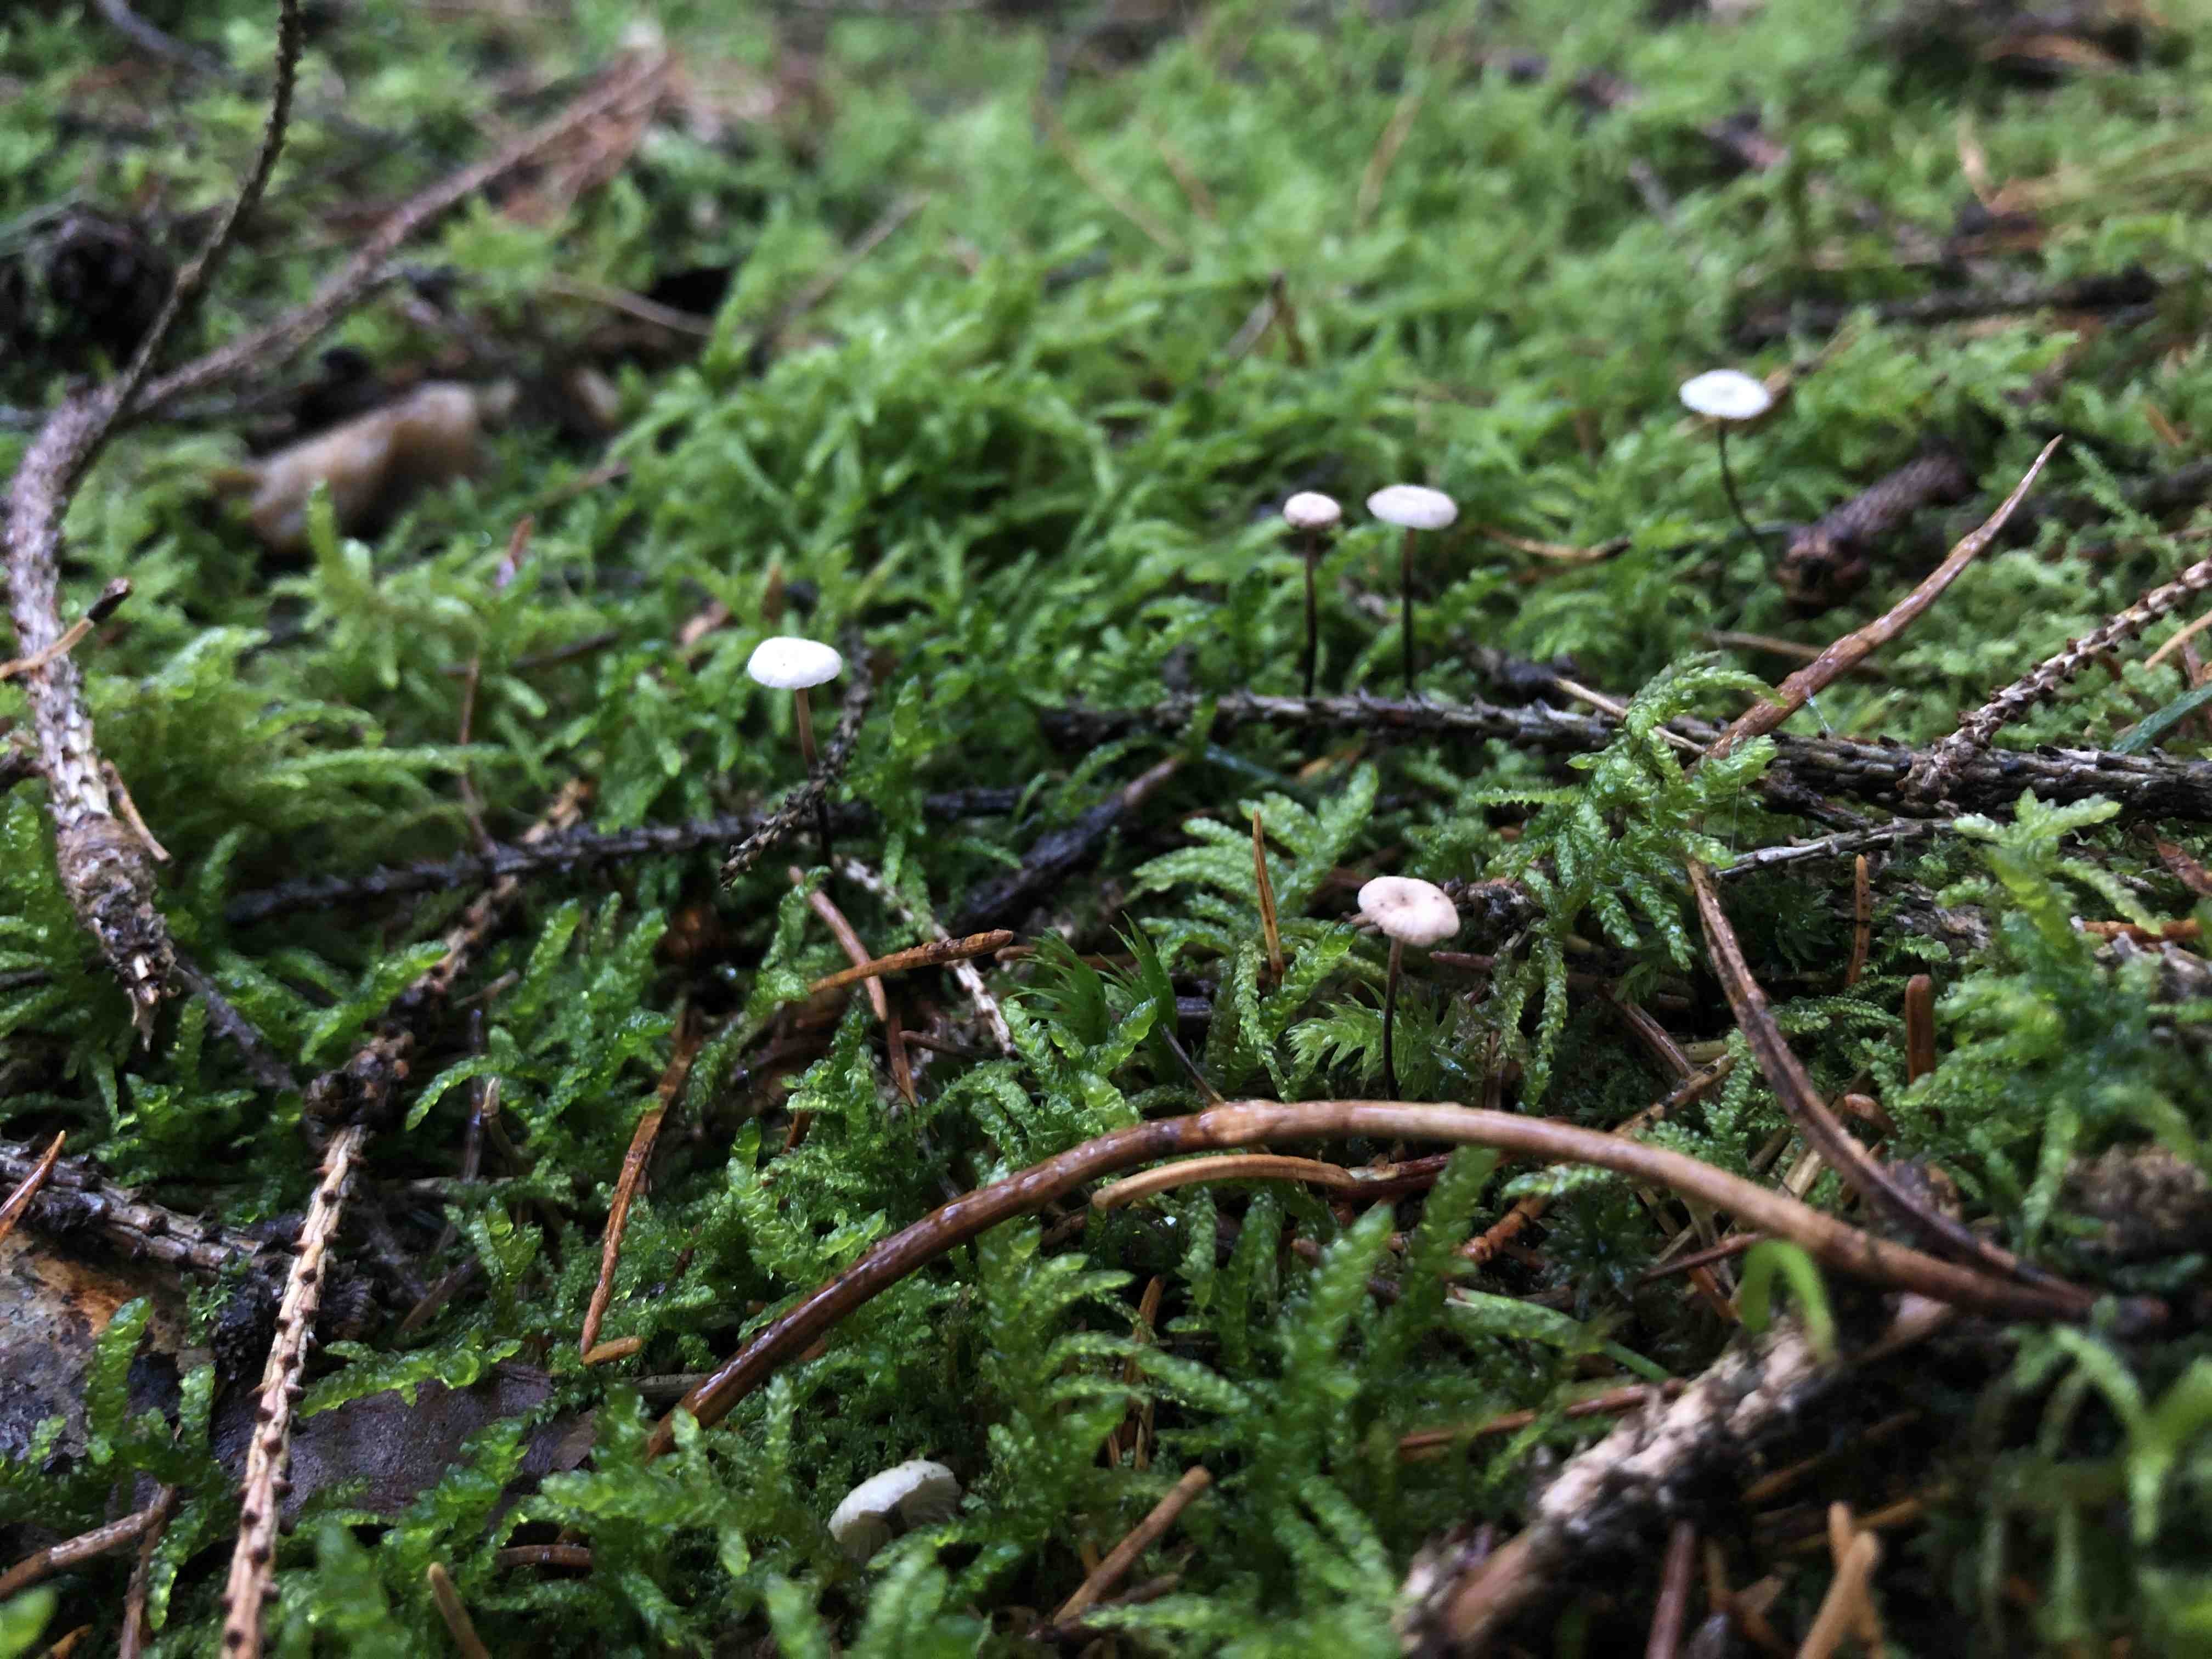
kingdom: Fungi
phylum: Basidiomycota
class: Agaricomycetes
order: Agaricales
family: Omphalotaceae
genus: Paragymnopus
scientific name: Paragymnopus perforans
